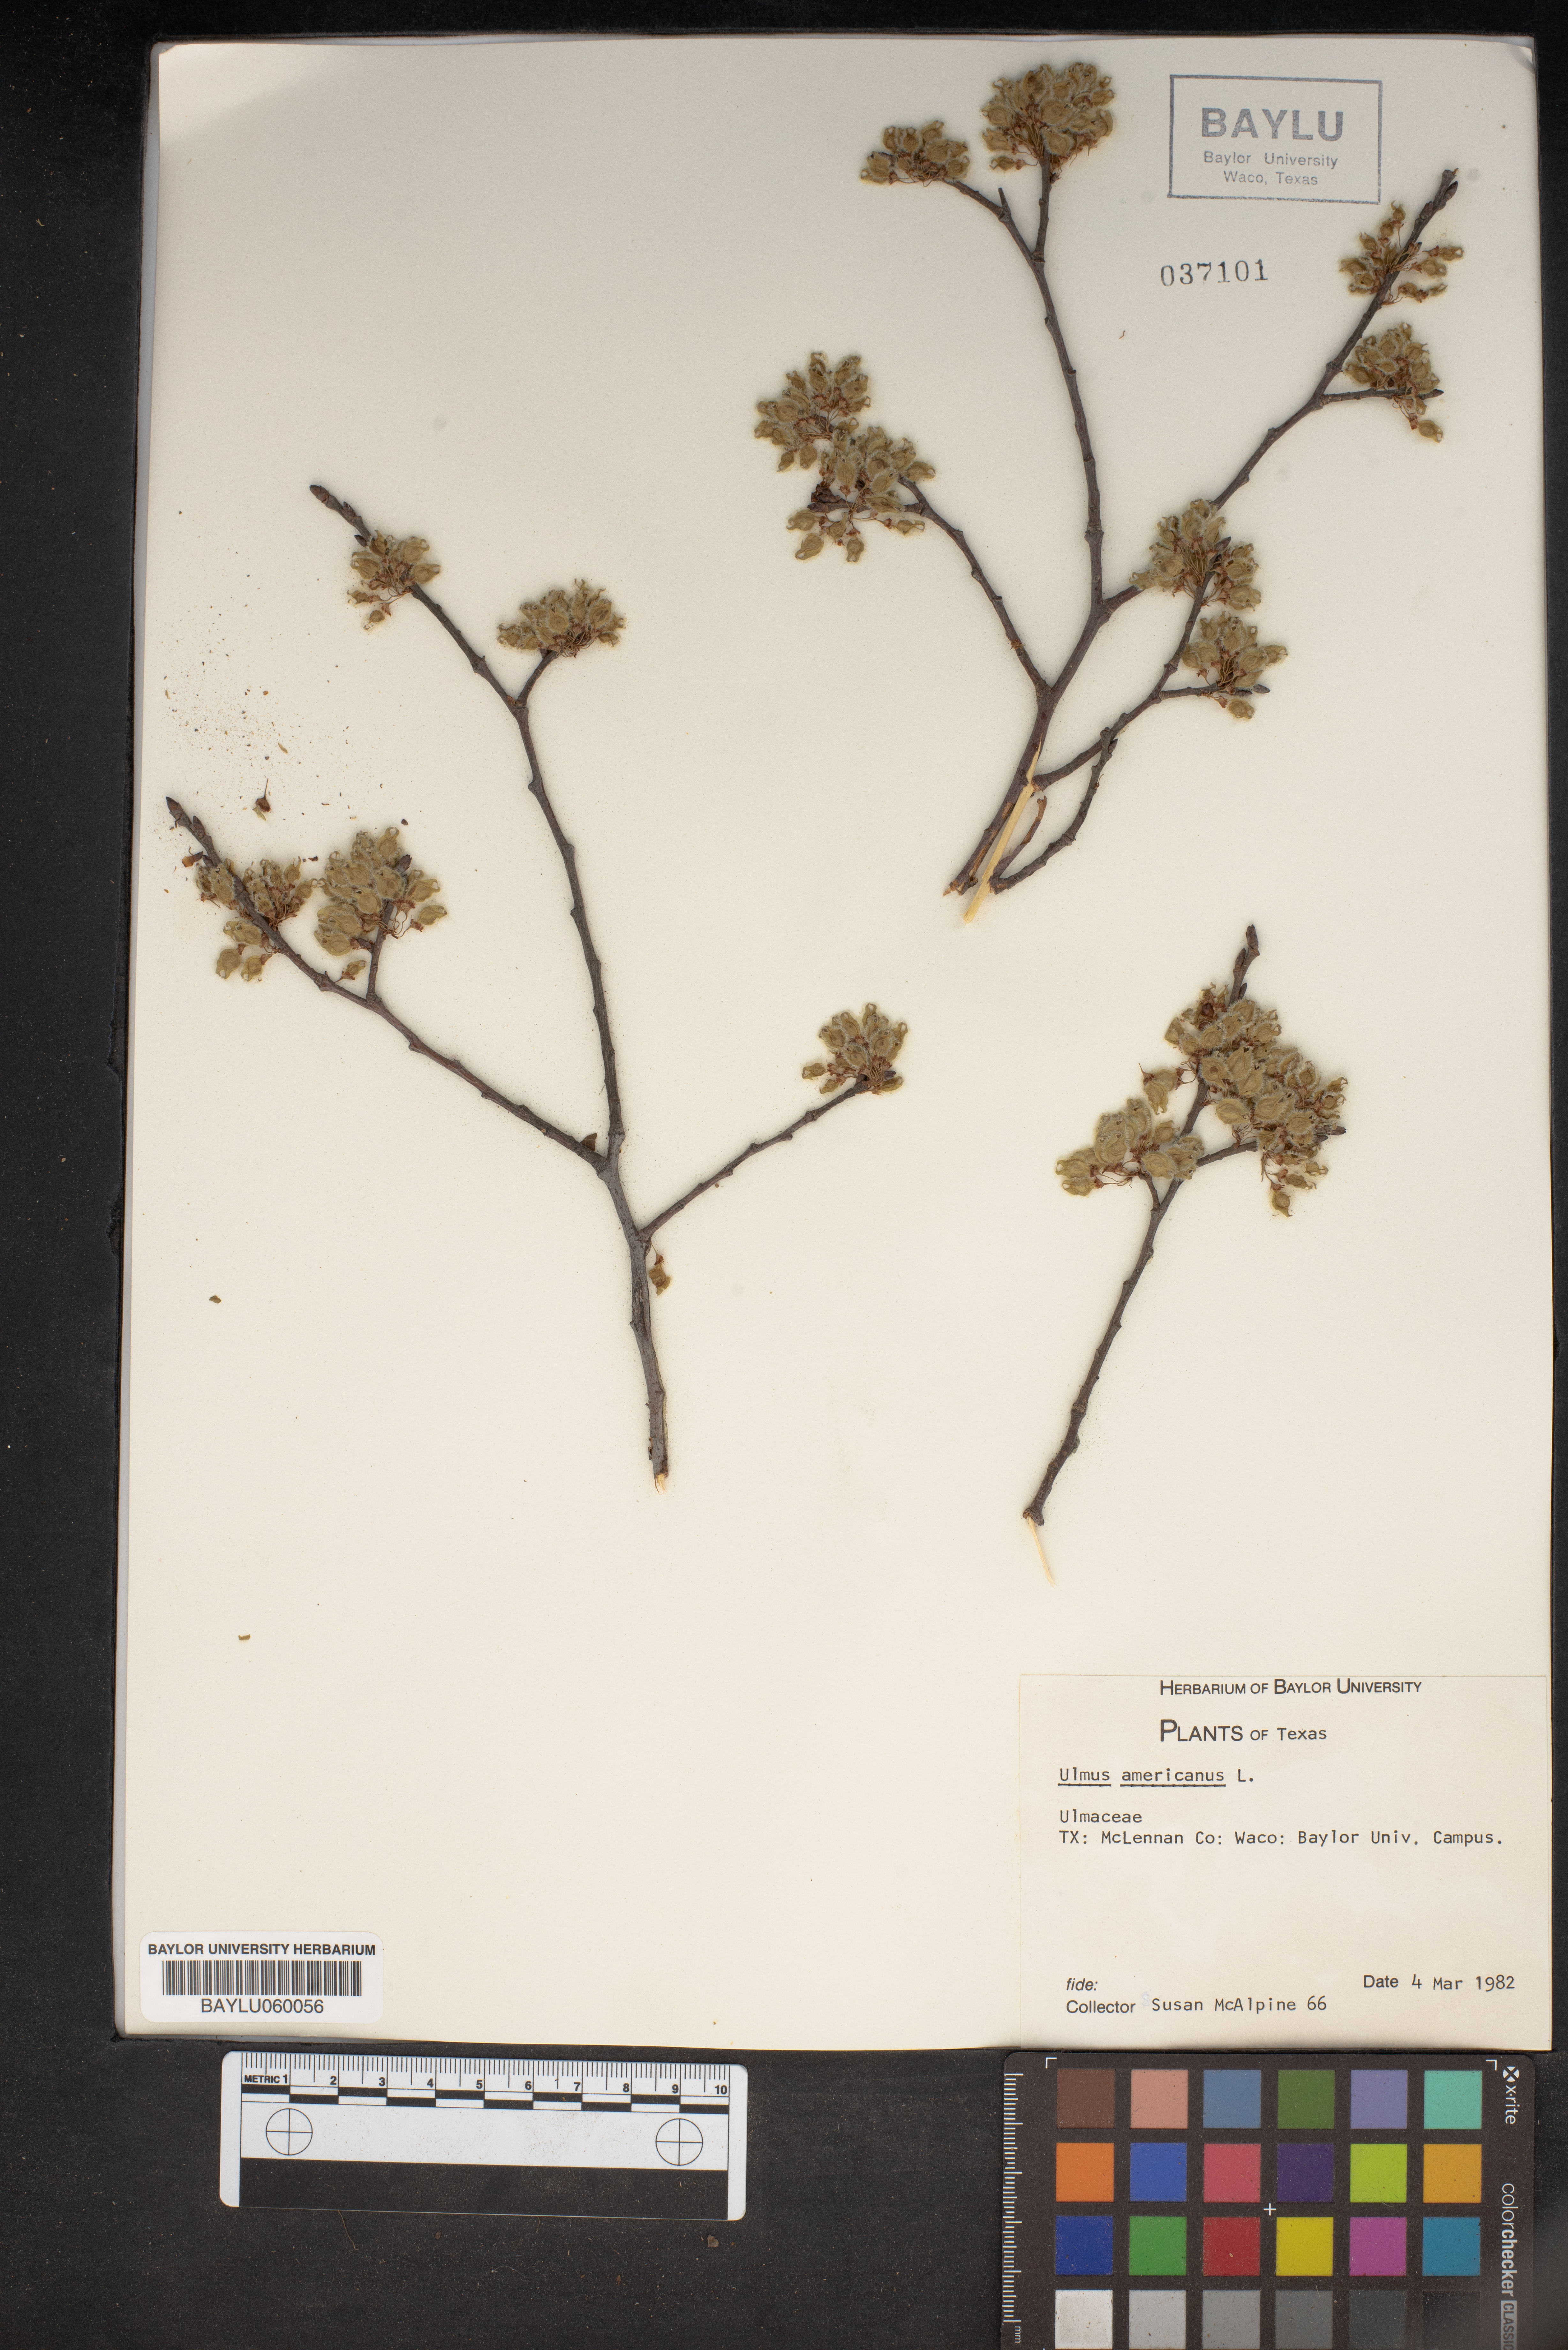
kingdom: Plantae
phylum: Tracheophyta
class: Magnoliopsida
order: Rosales
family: Ulmaceae
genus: Ulmus
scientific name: Ulmus americana
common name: American elm
